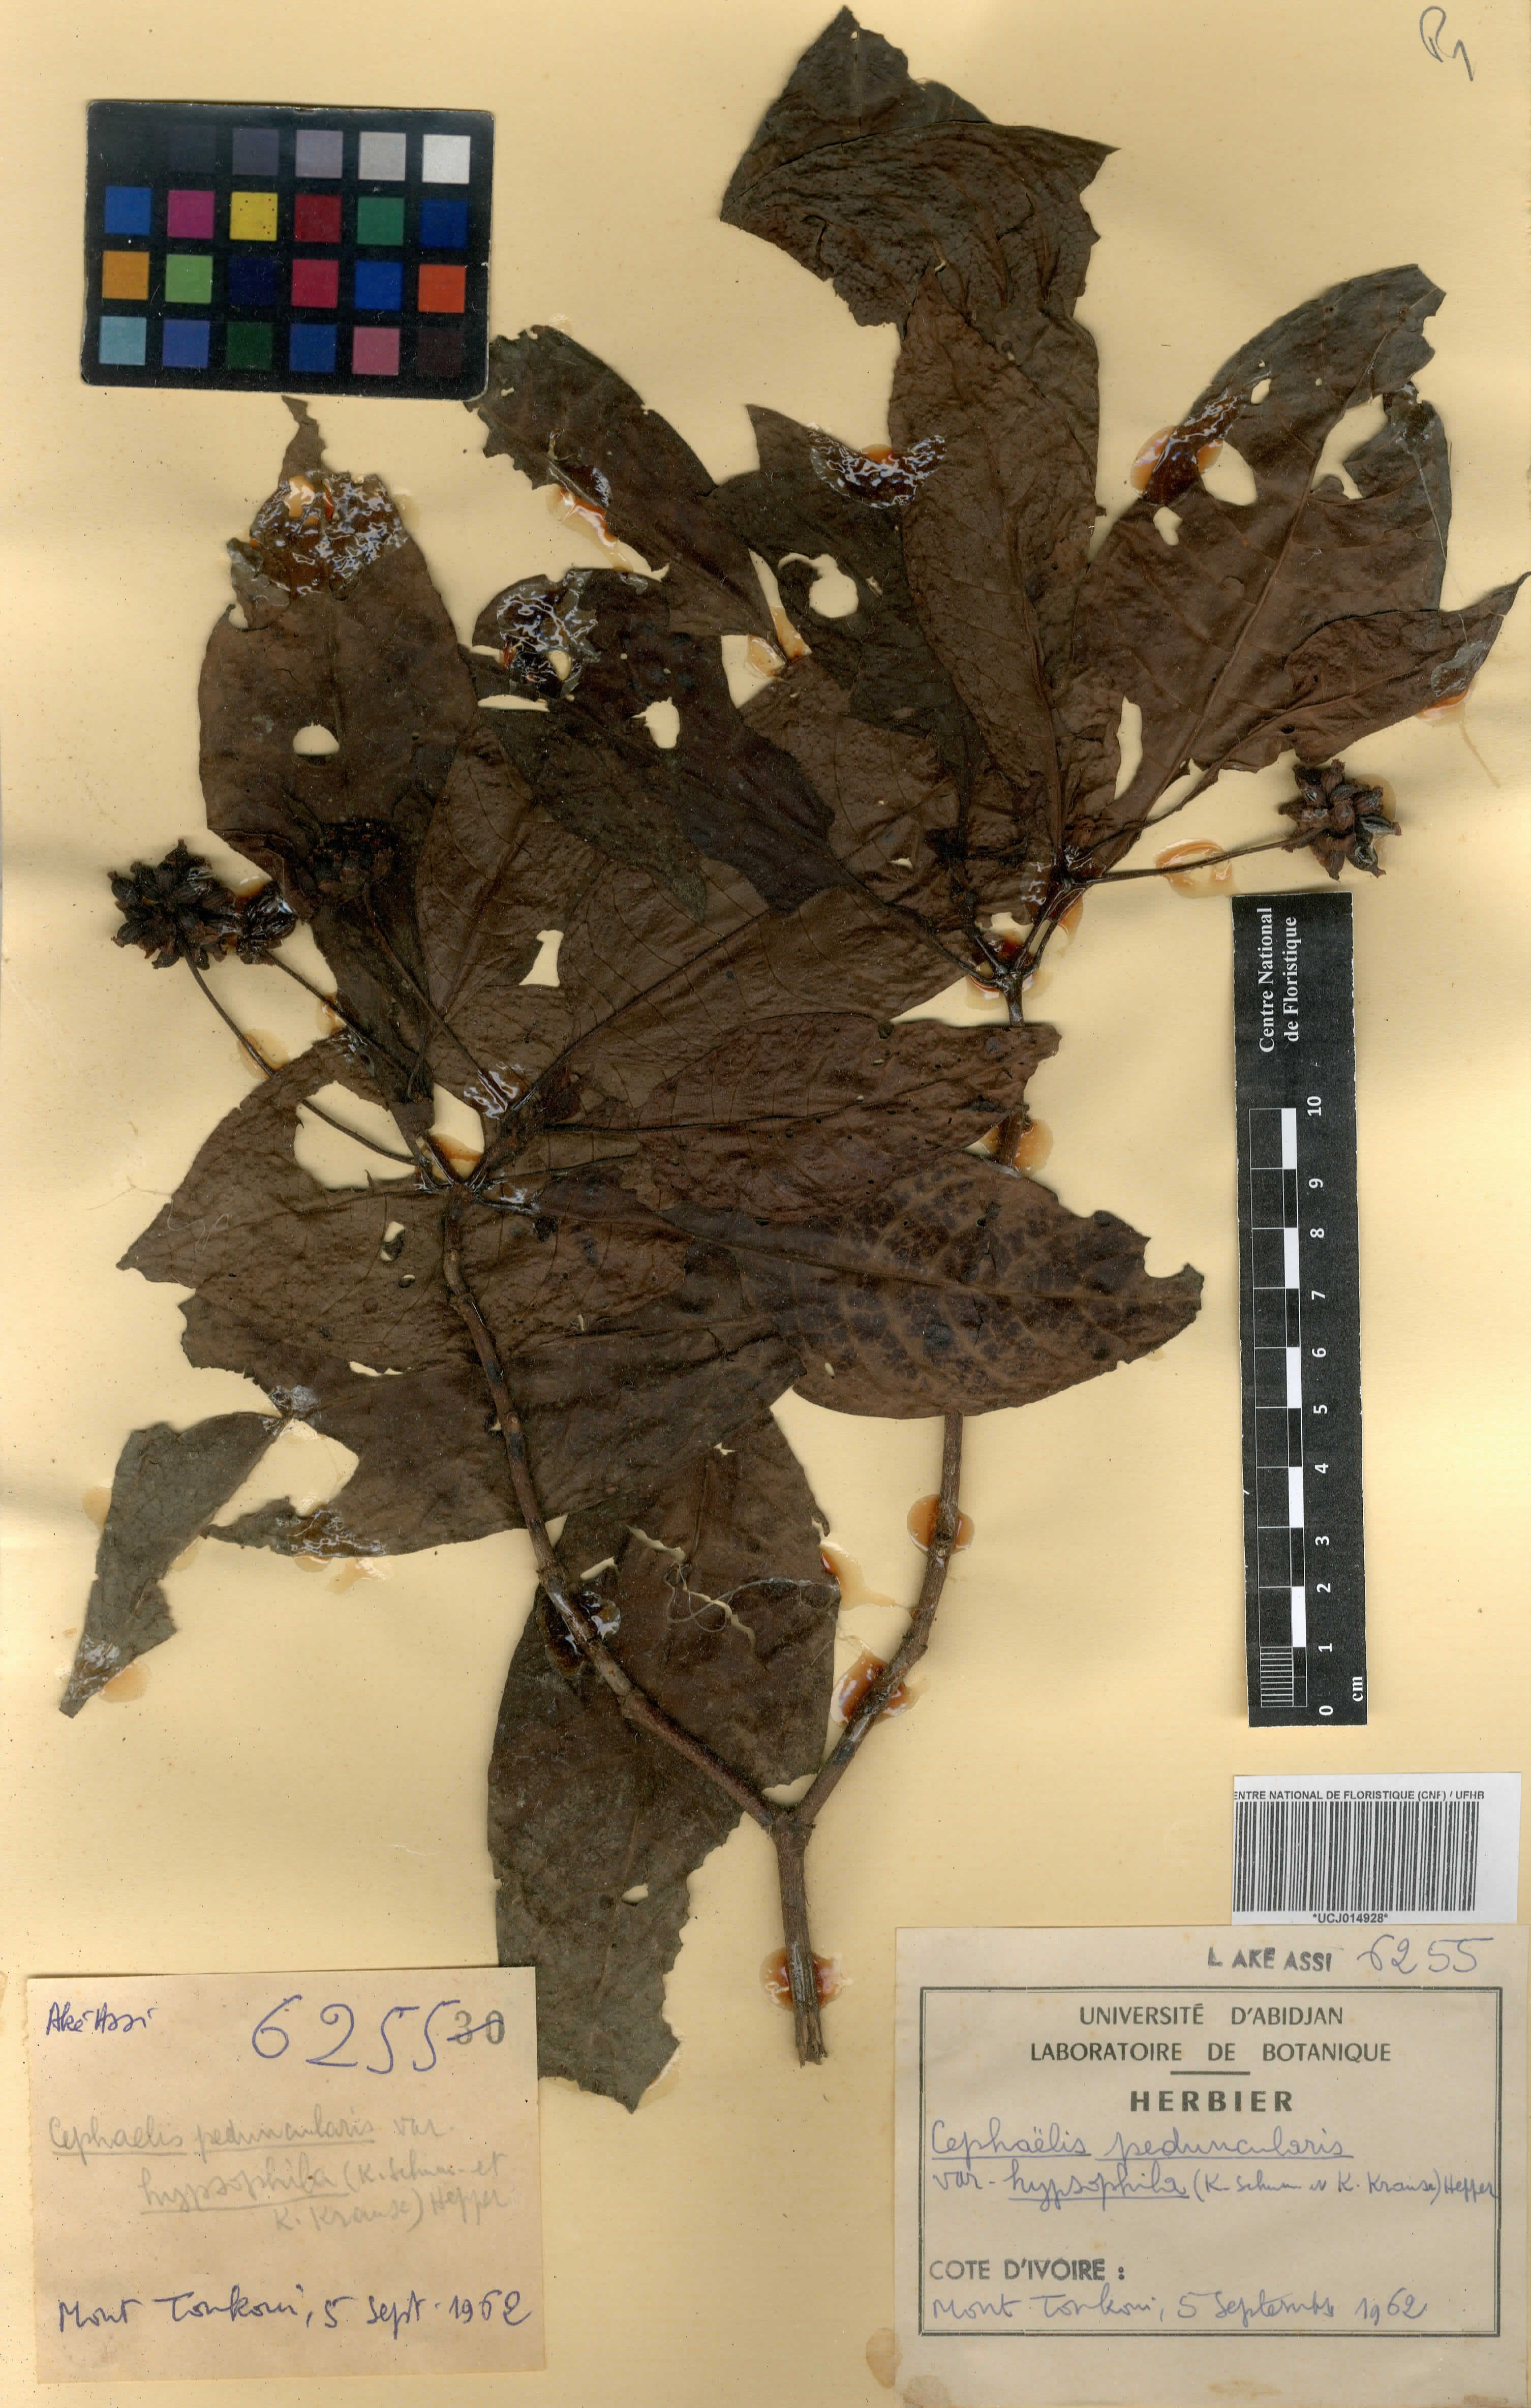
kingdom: Plantae
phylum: Tracheophyta
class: Magnoliopsida
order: Gentianales
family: Rubiaceae
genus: Psychotria
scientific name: Psychotria peduncularis
